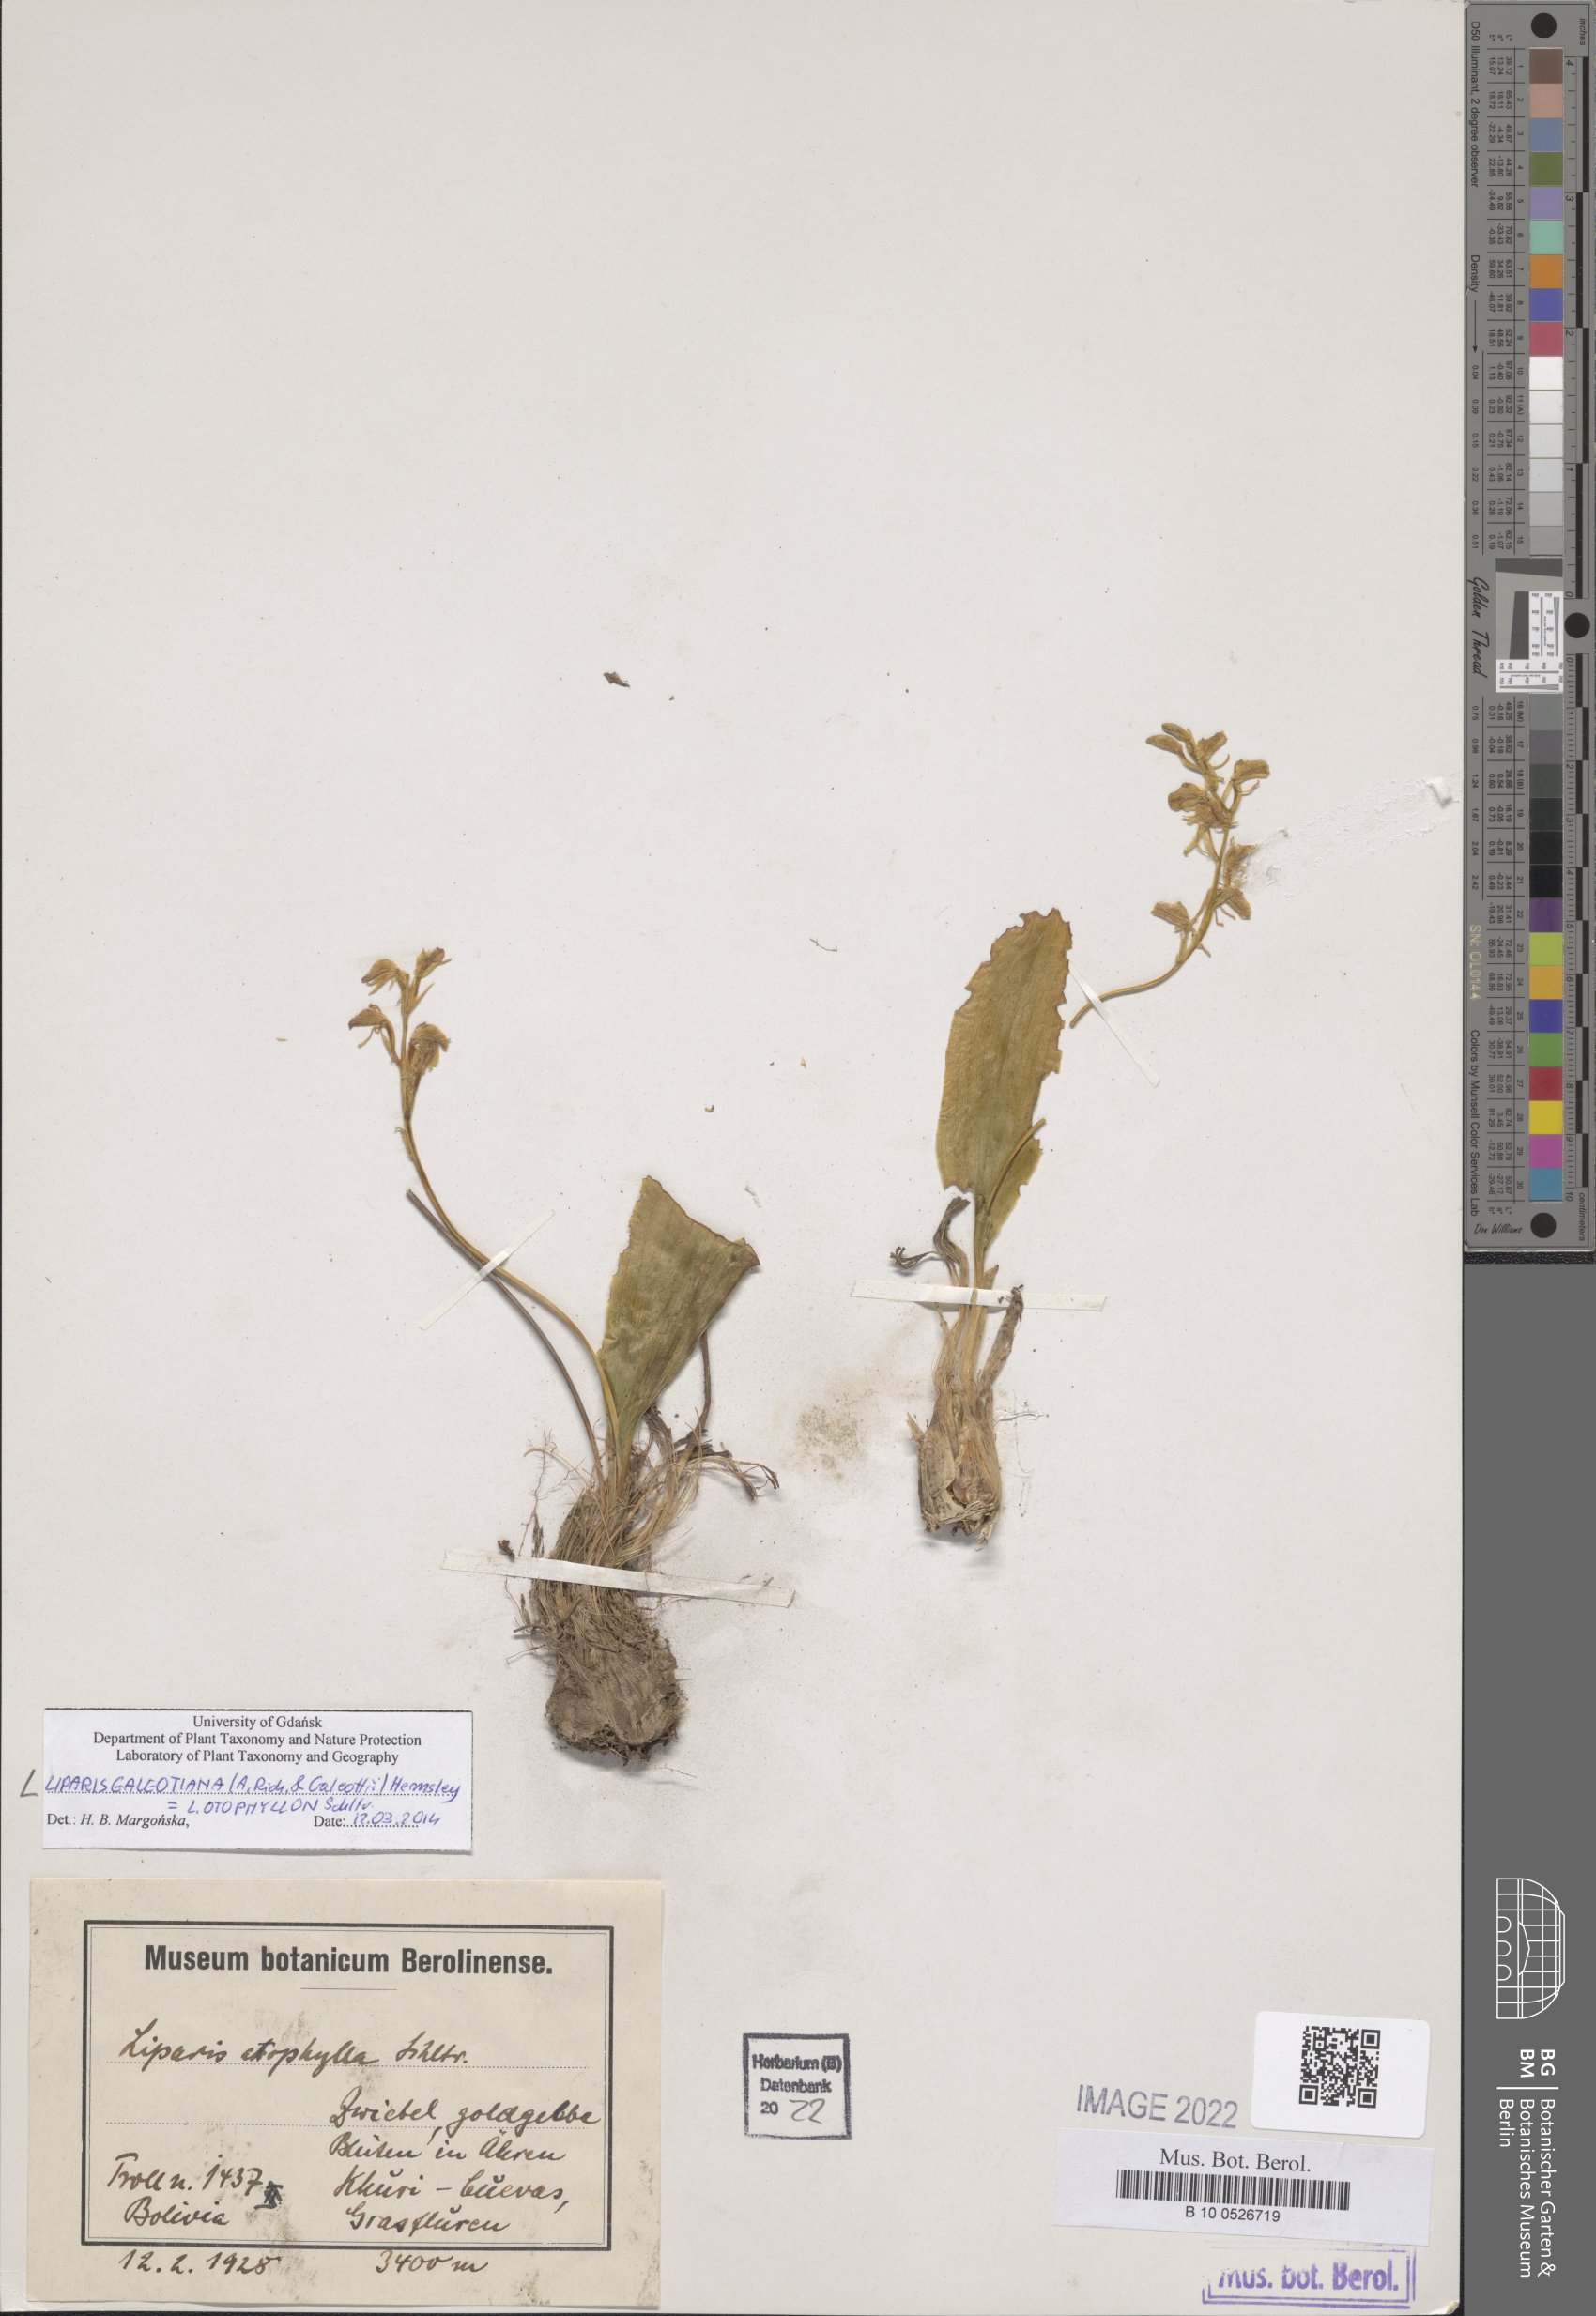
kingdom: Plantae
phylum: Tracheophyta
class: Liliopsida
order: Asparagales
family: Orchidaceae
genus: Liparis
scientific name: Liparis vexillifera
